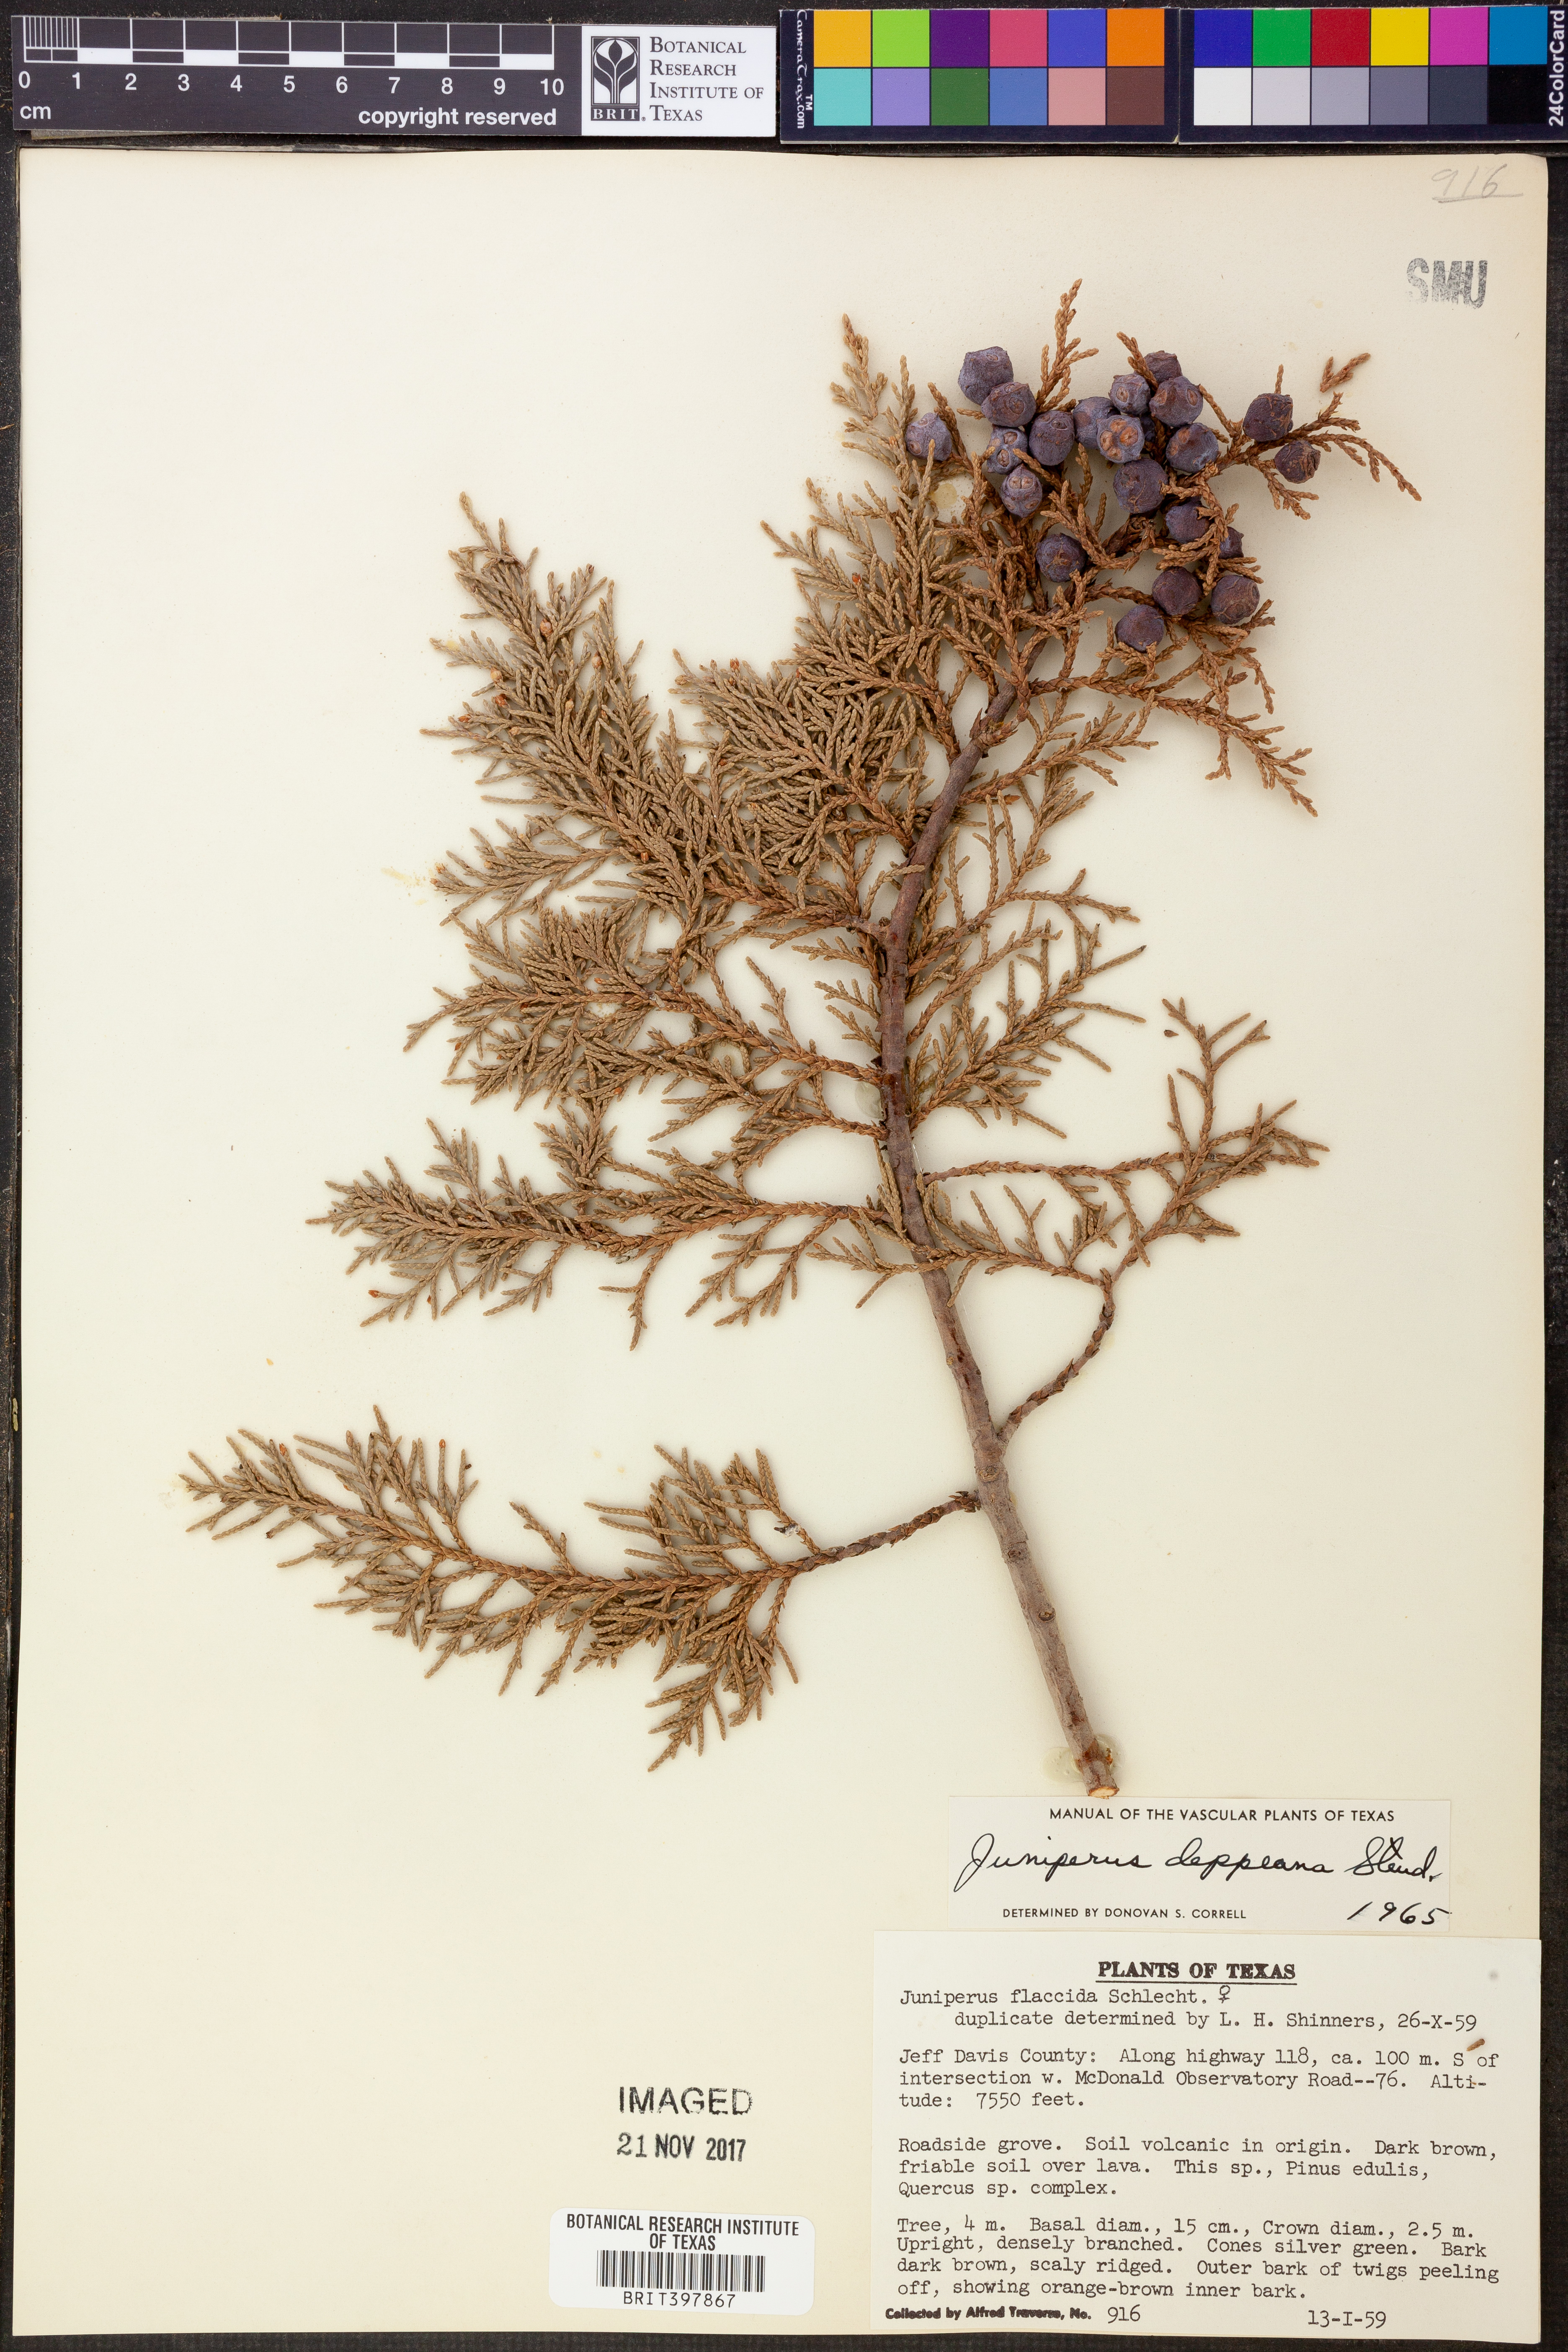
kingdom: Plantae
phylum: Tracheophyta
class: Pinopsida
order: Pinales
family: Cupressaceae
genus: Juniperus
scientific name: Juniperus deppeana
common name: Alligator juniper
